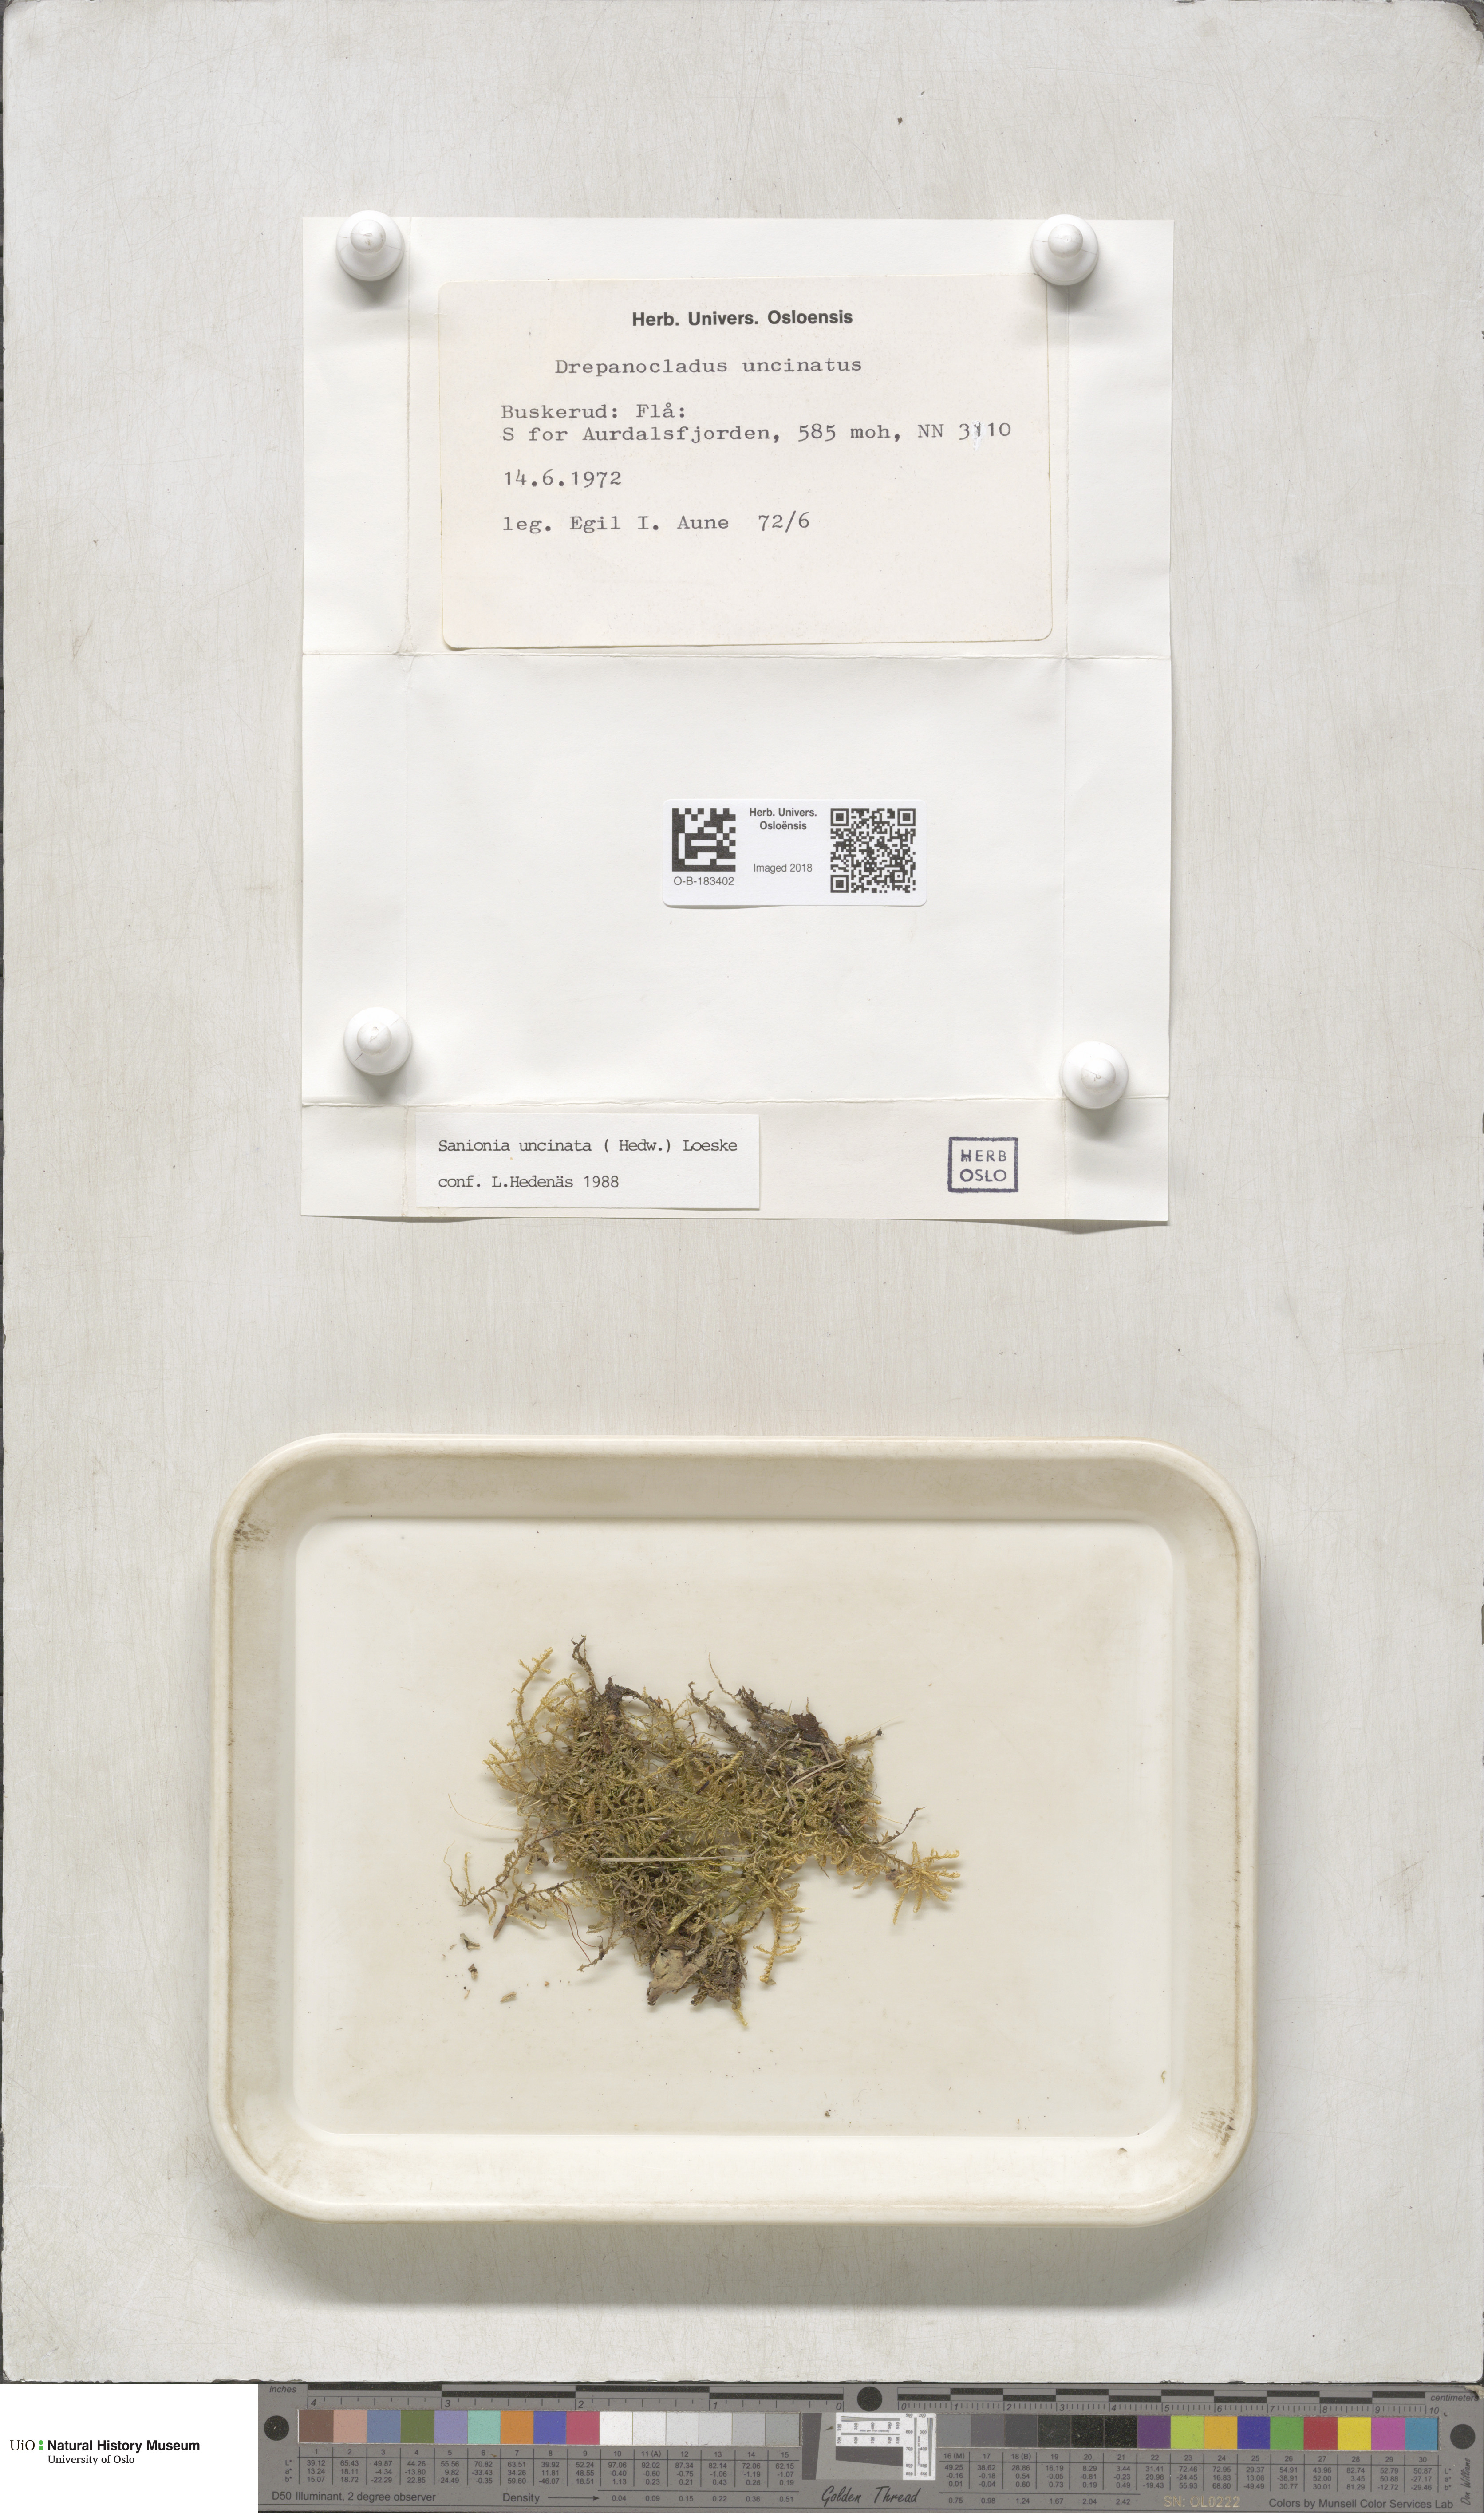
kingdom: Plantae
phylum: Bryophyta
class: Bryopsida
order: Hypnales
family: Scorpidiaceae
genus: Sanionia
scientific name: Sanionia uncinata
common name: Sickle moss
